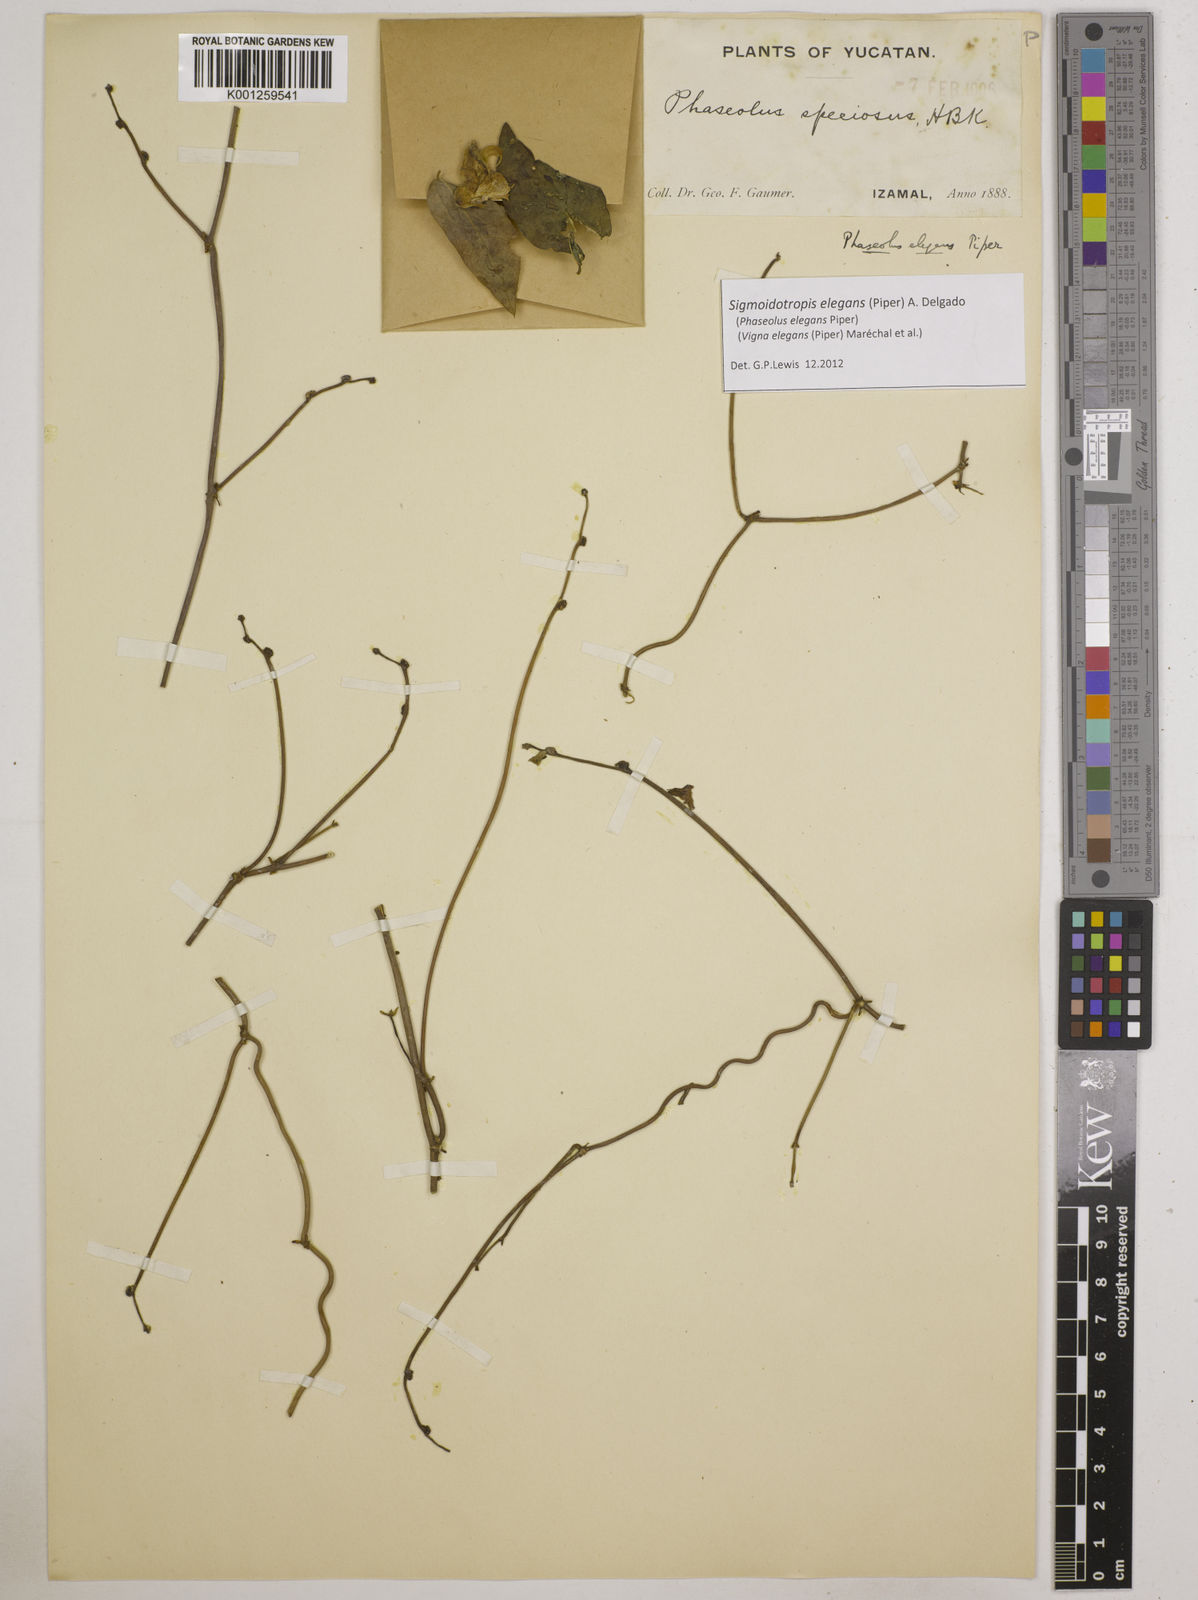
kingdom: Plantae
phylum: Tracheophyta
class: Magnoliopsida
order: Fabales
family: Fabaceae
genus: Sigmoidotropis
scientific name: Sigmoidotropis elegans
